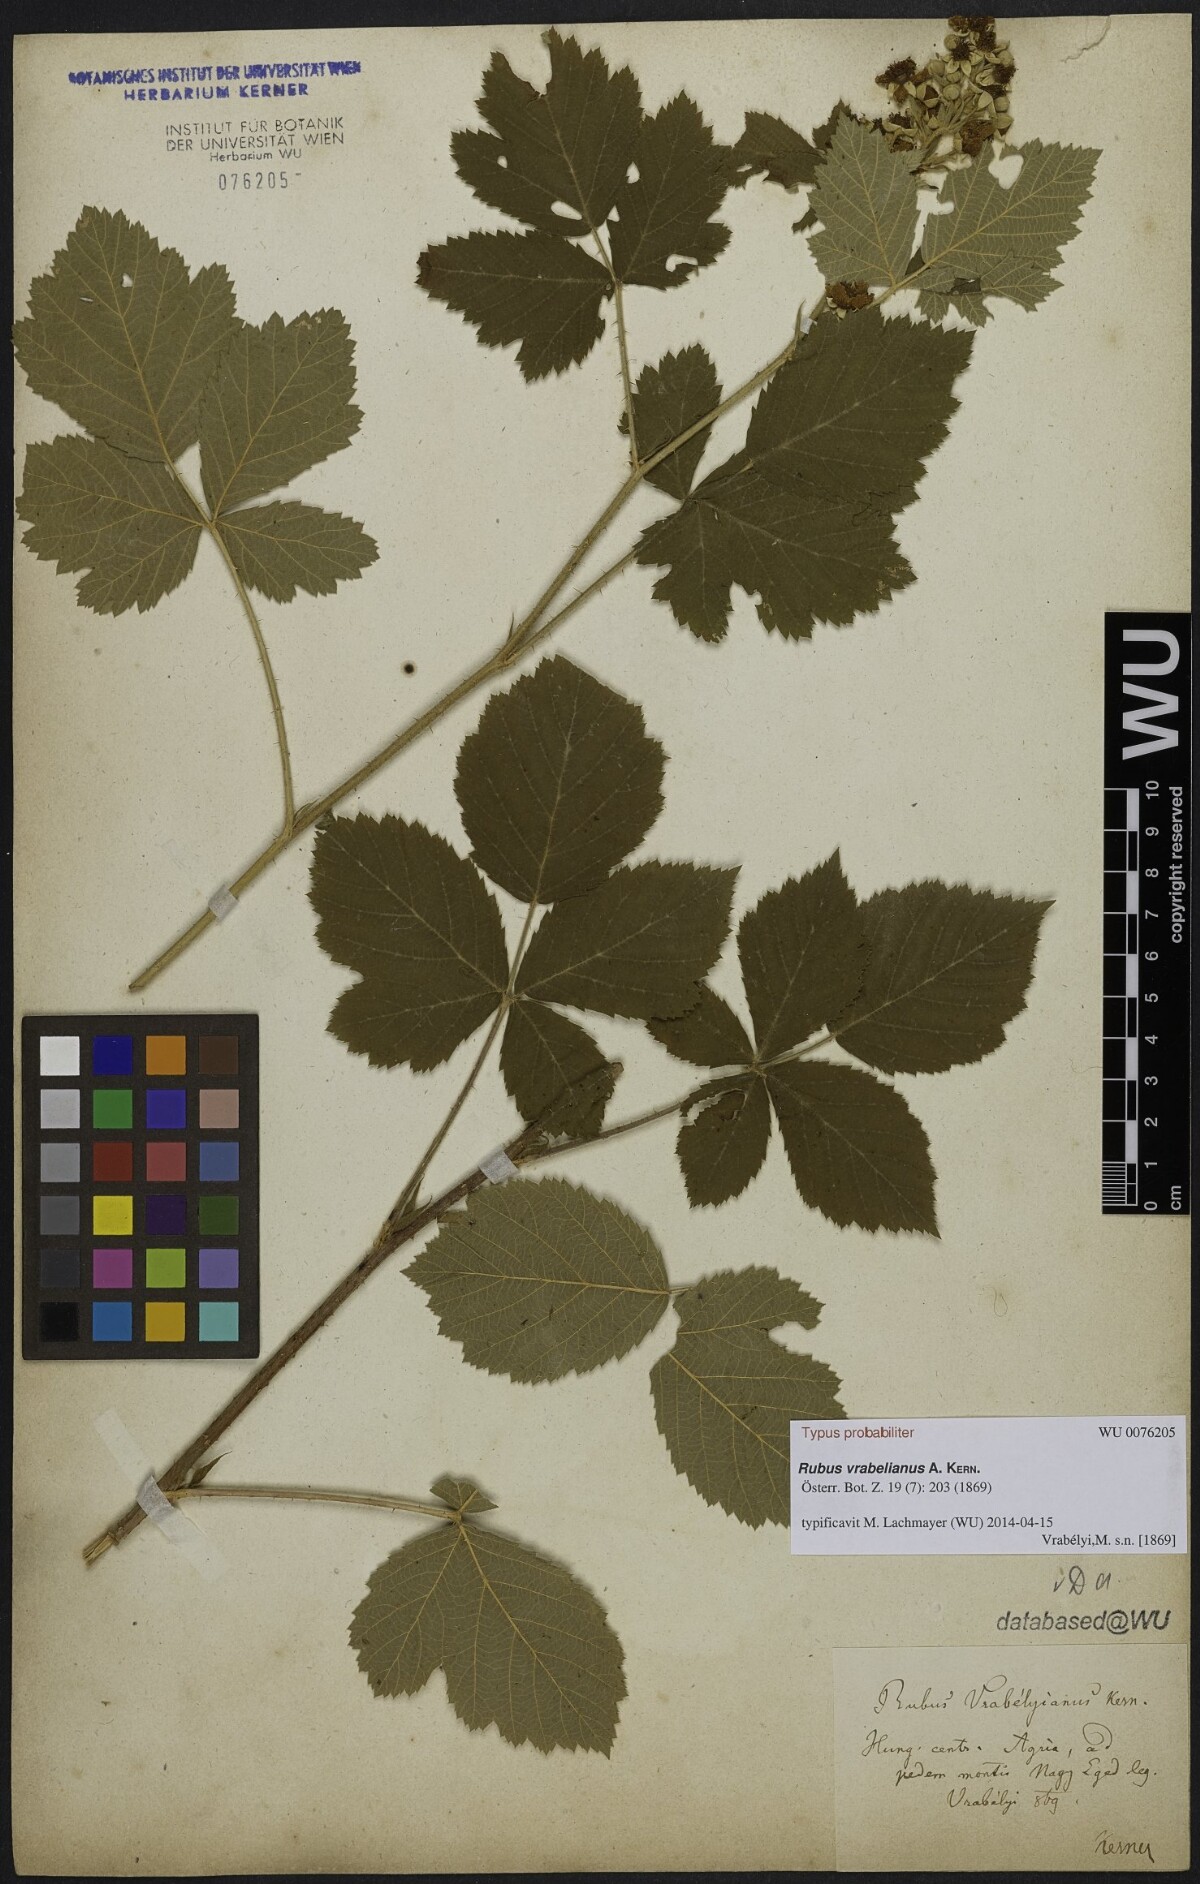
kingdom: Plantae
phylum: Tracheophyta
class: Magnoliopsida
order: Rosales
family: Rosaceae
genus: Rubus
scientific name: Rubus vrabelianus
